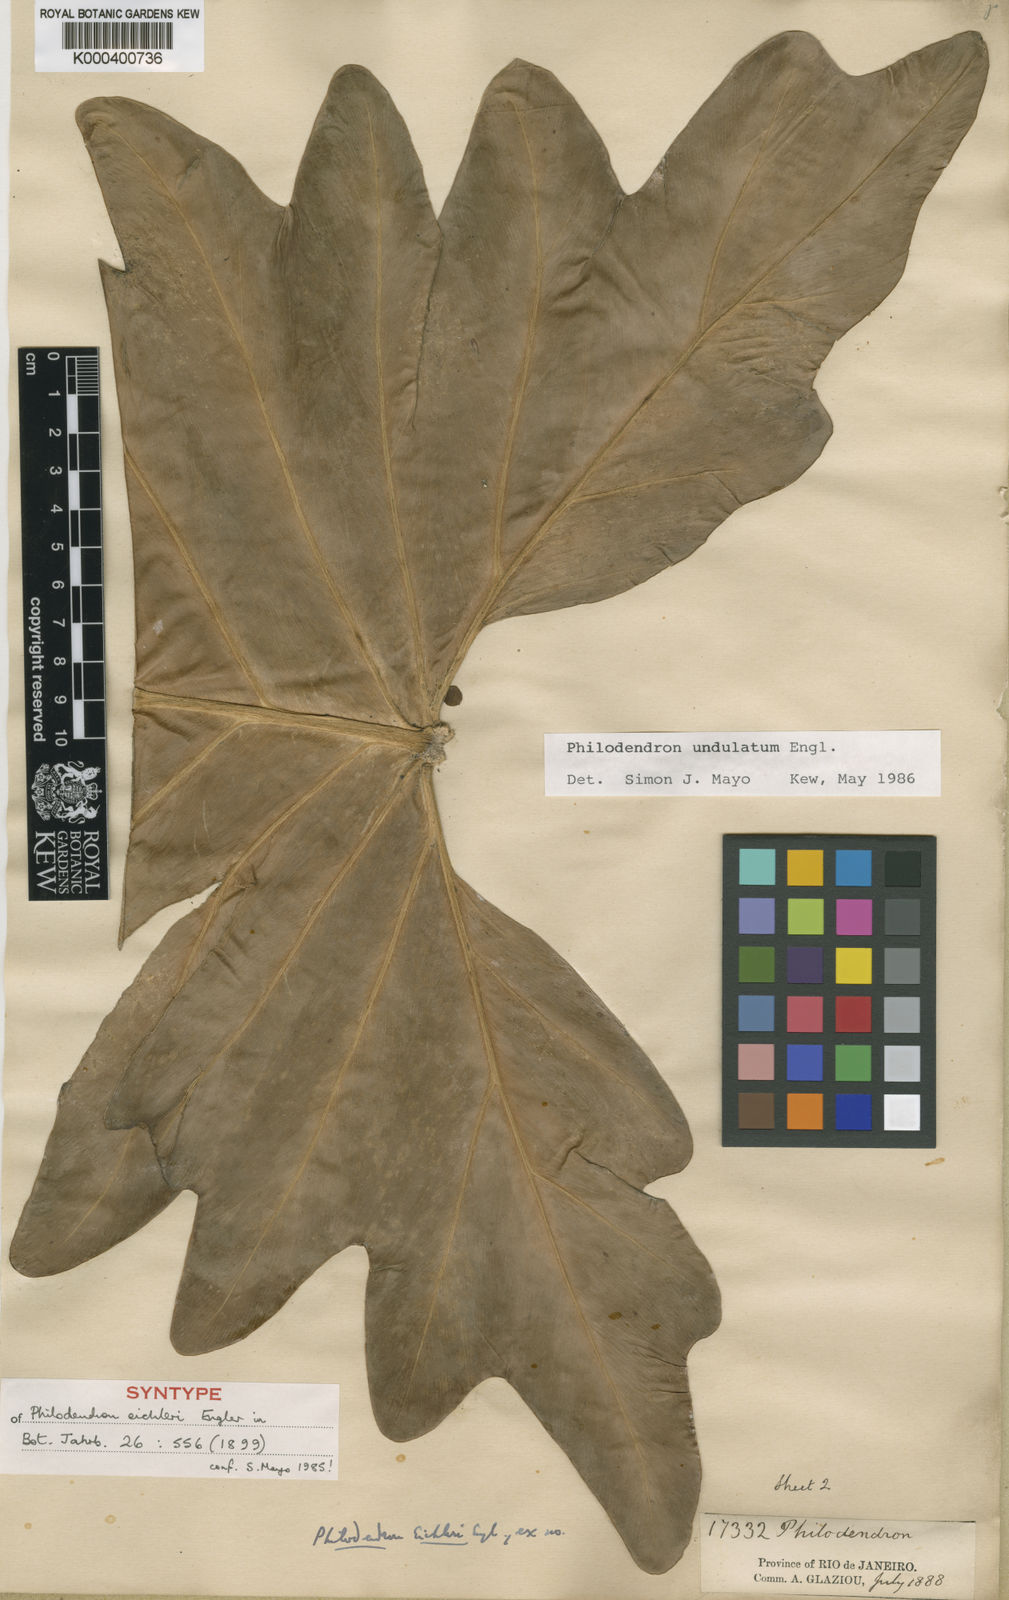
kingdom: Plantae
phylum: Tracheophyta
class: Liliopsida
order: Alismatales
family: Araceae
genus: Thaumatophyllum
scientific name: Thaumatophyllum undulatum
